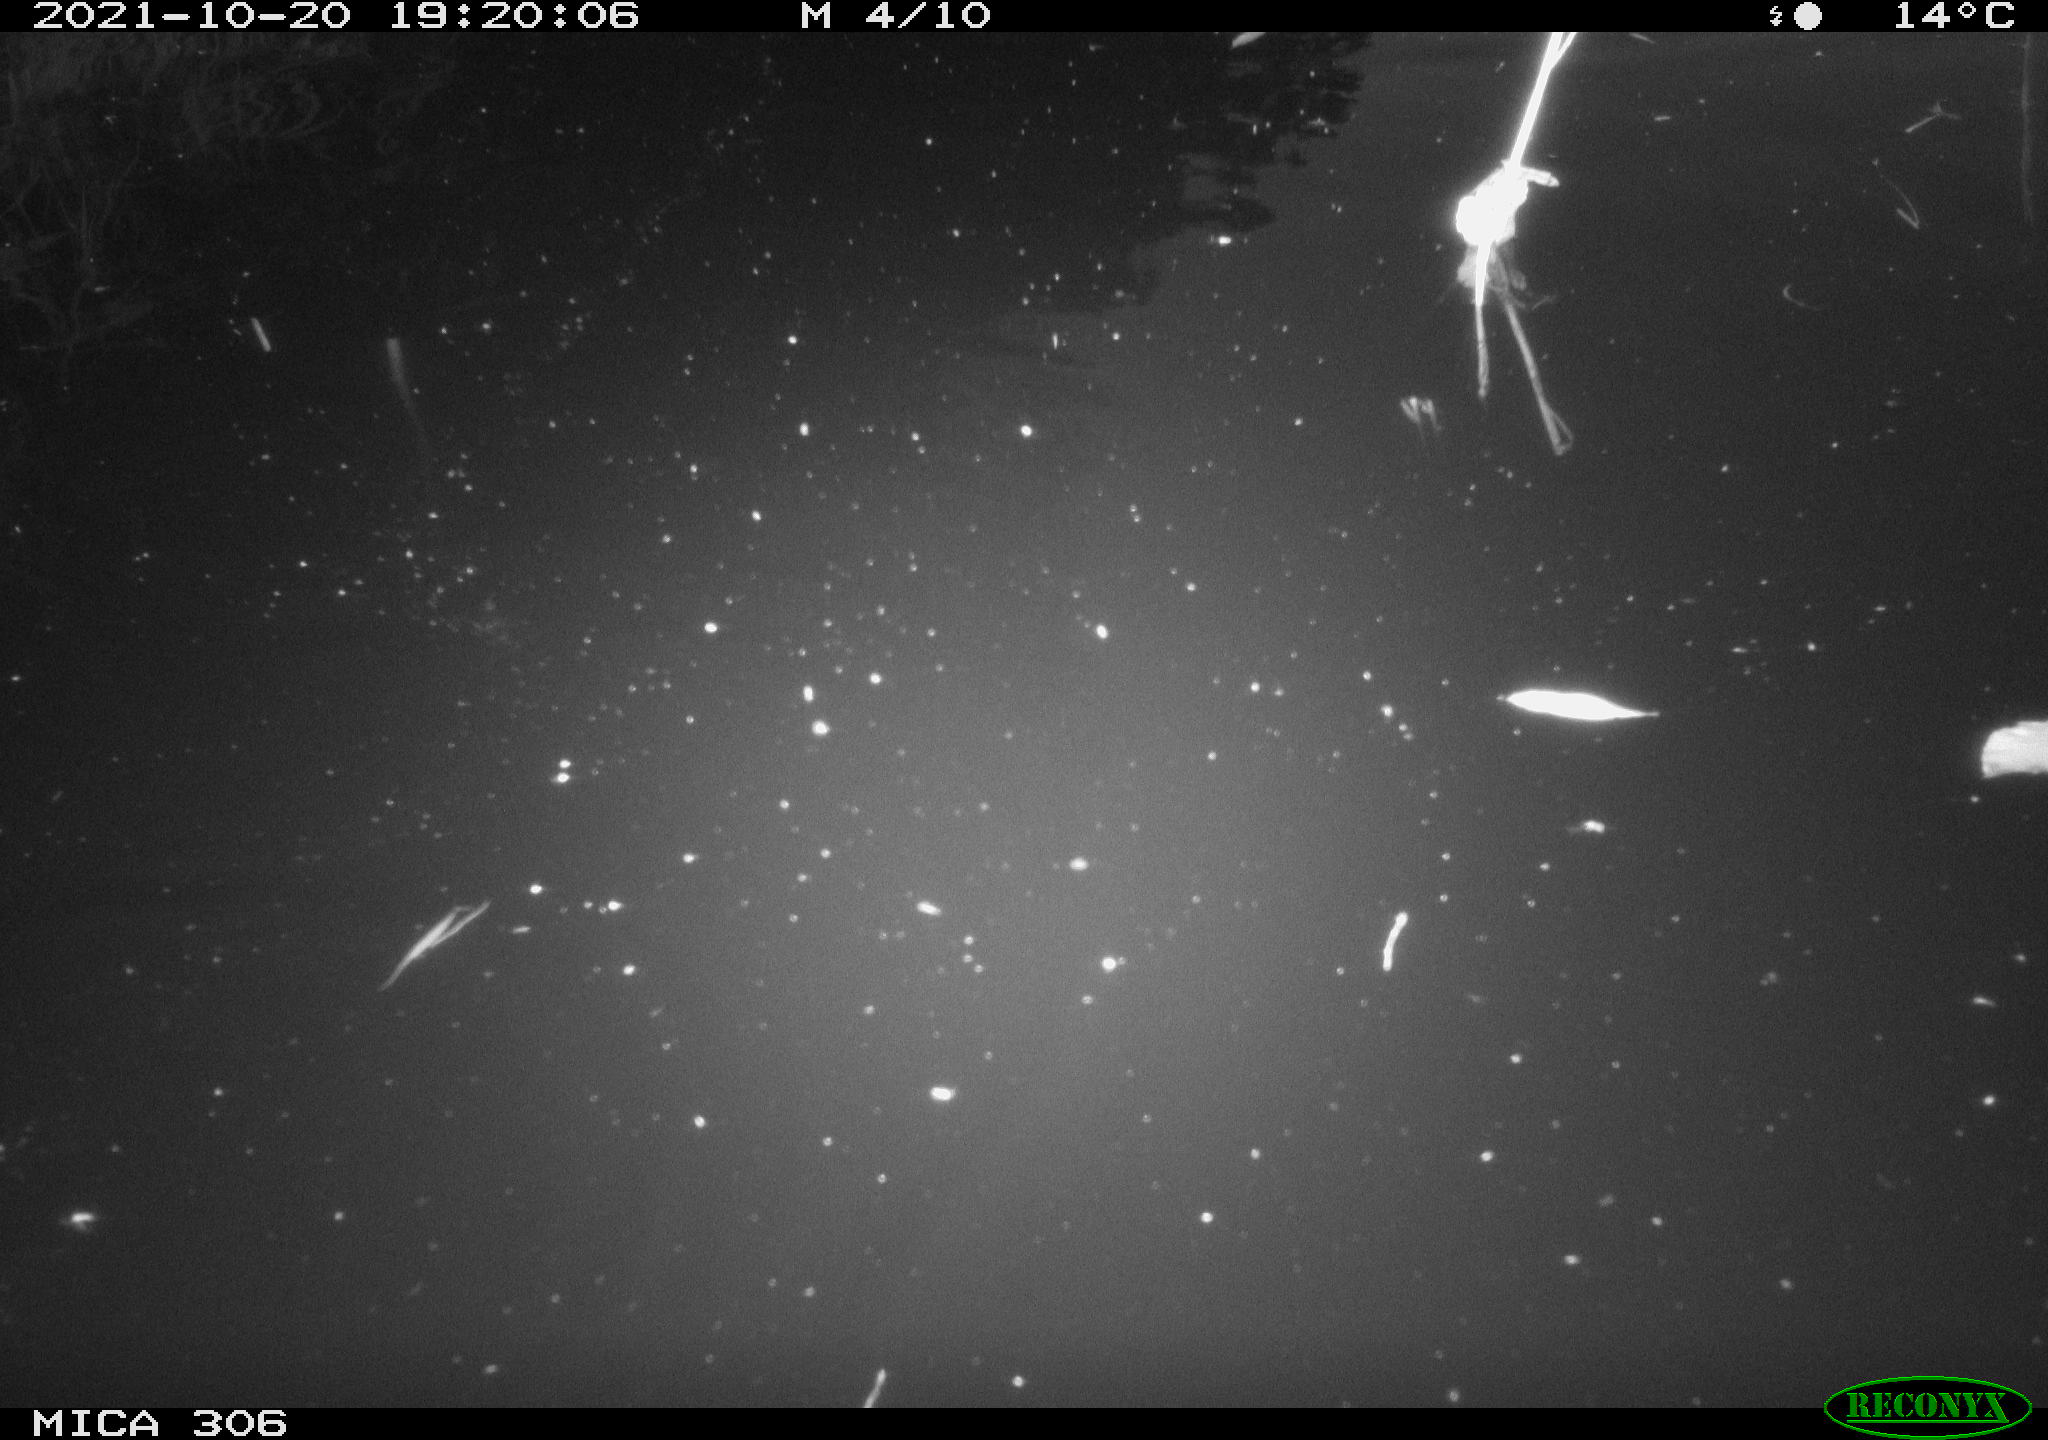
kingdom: Animalia
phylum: Chordata
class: Aves
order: Gruiformes
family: Rallidae
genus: Gallinula
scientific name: Gallinula chloropus
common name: Common moorhen
